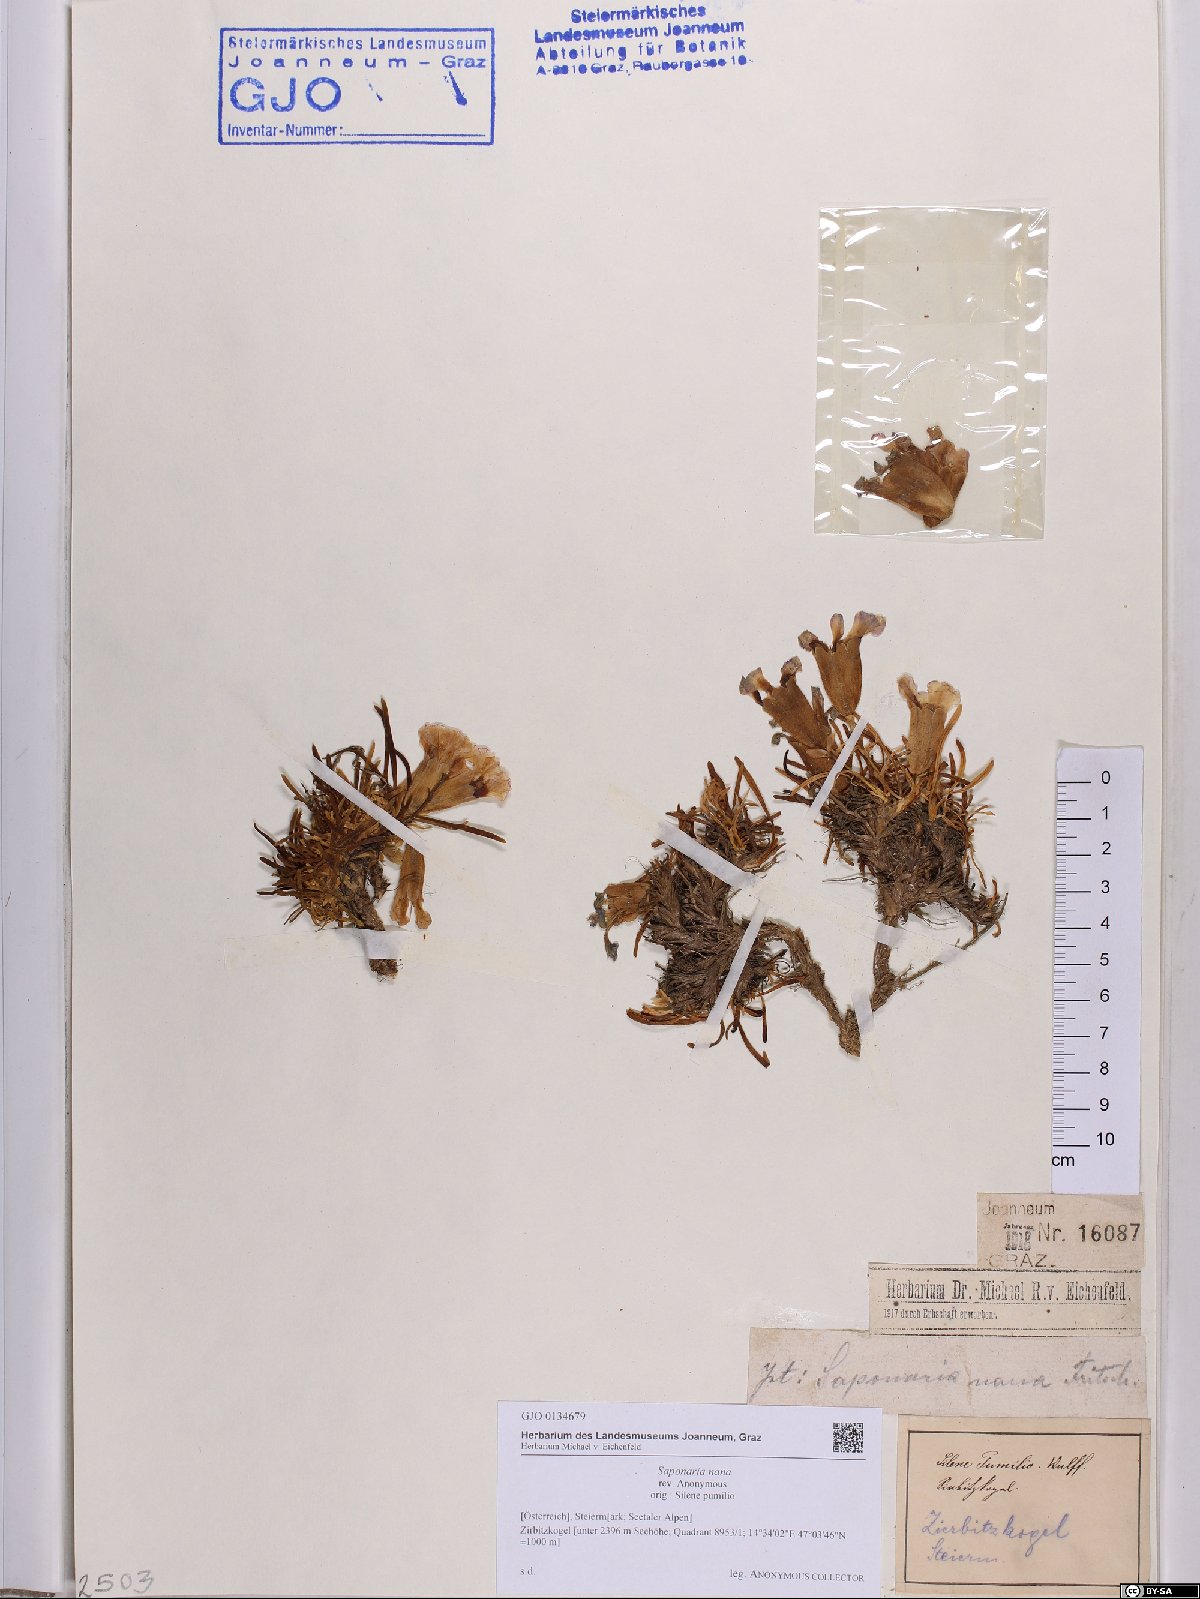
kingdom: Plantae
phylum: Tracheophyta
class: Magnoliopsida
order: Caryophyllales
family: Caryophyllaceae
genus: Saponaria
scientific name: Saponaria pumila
